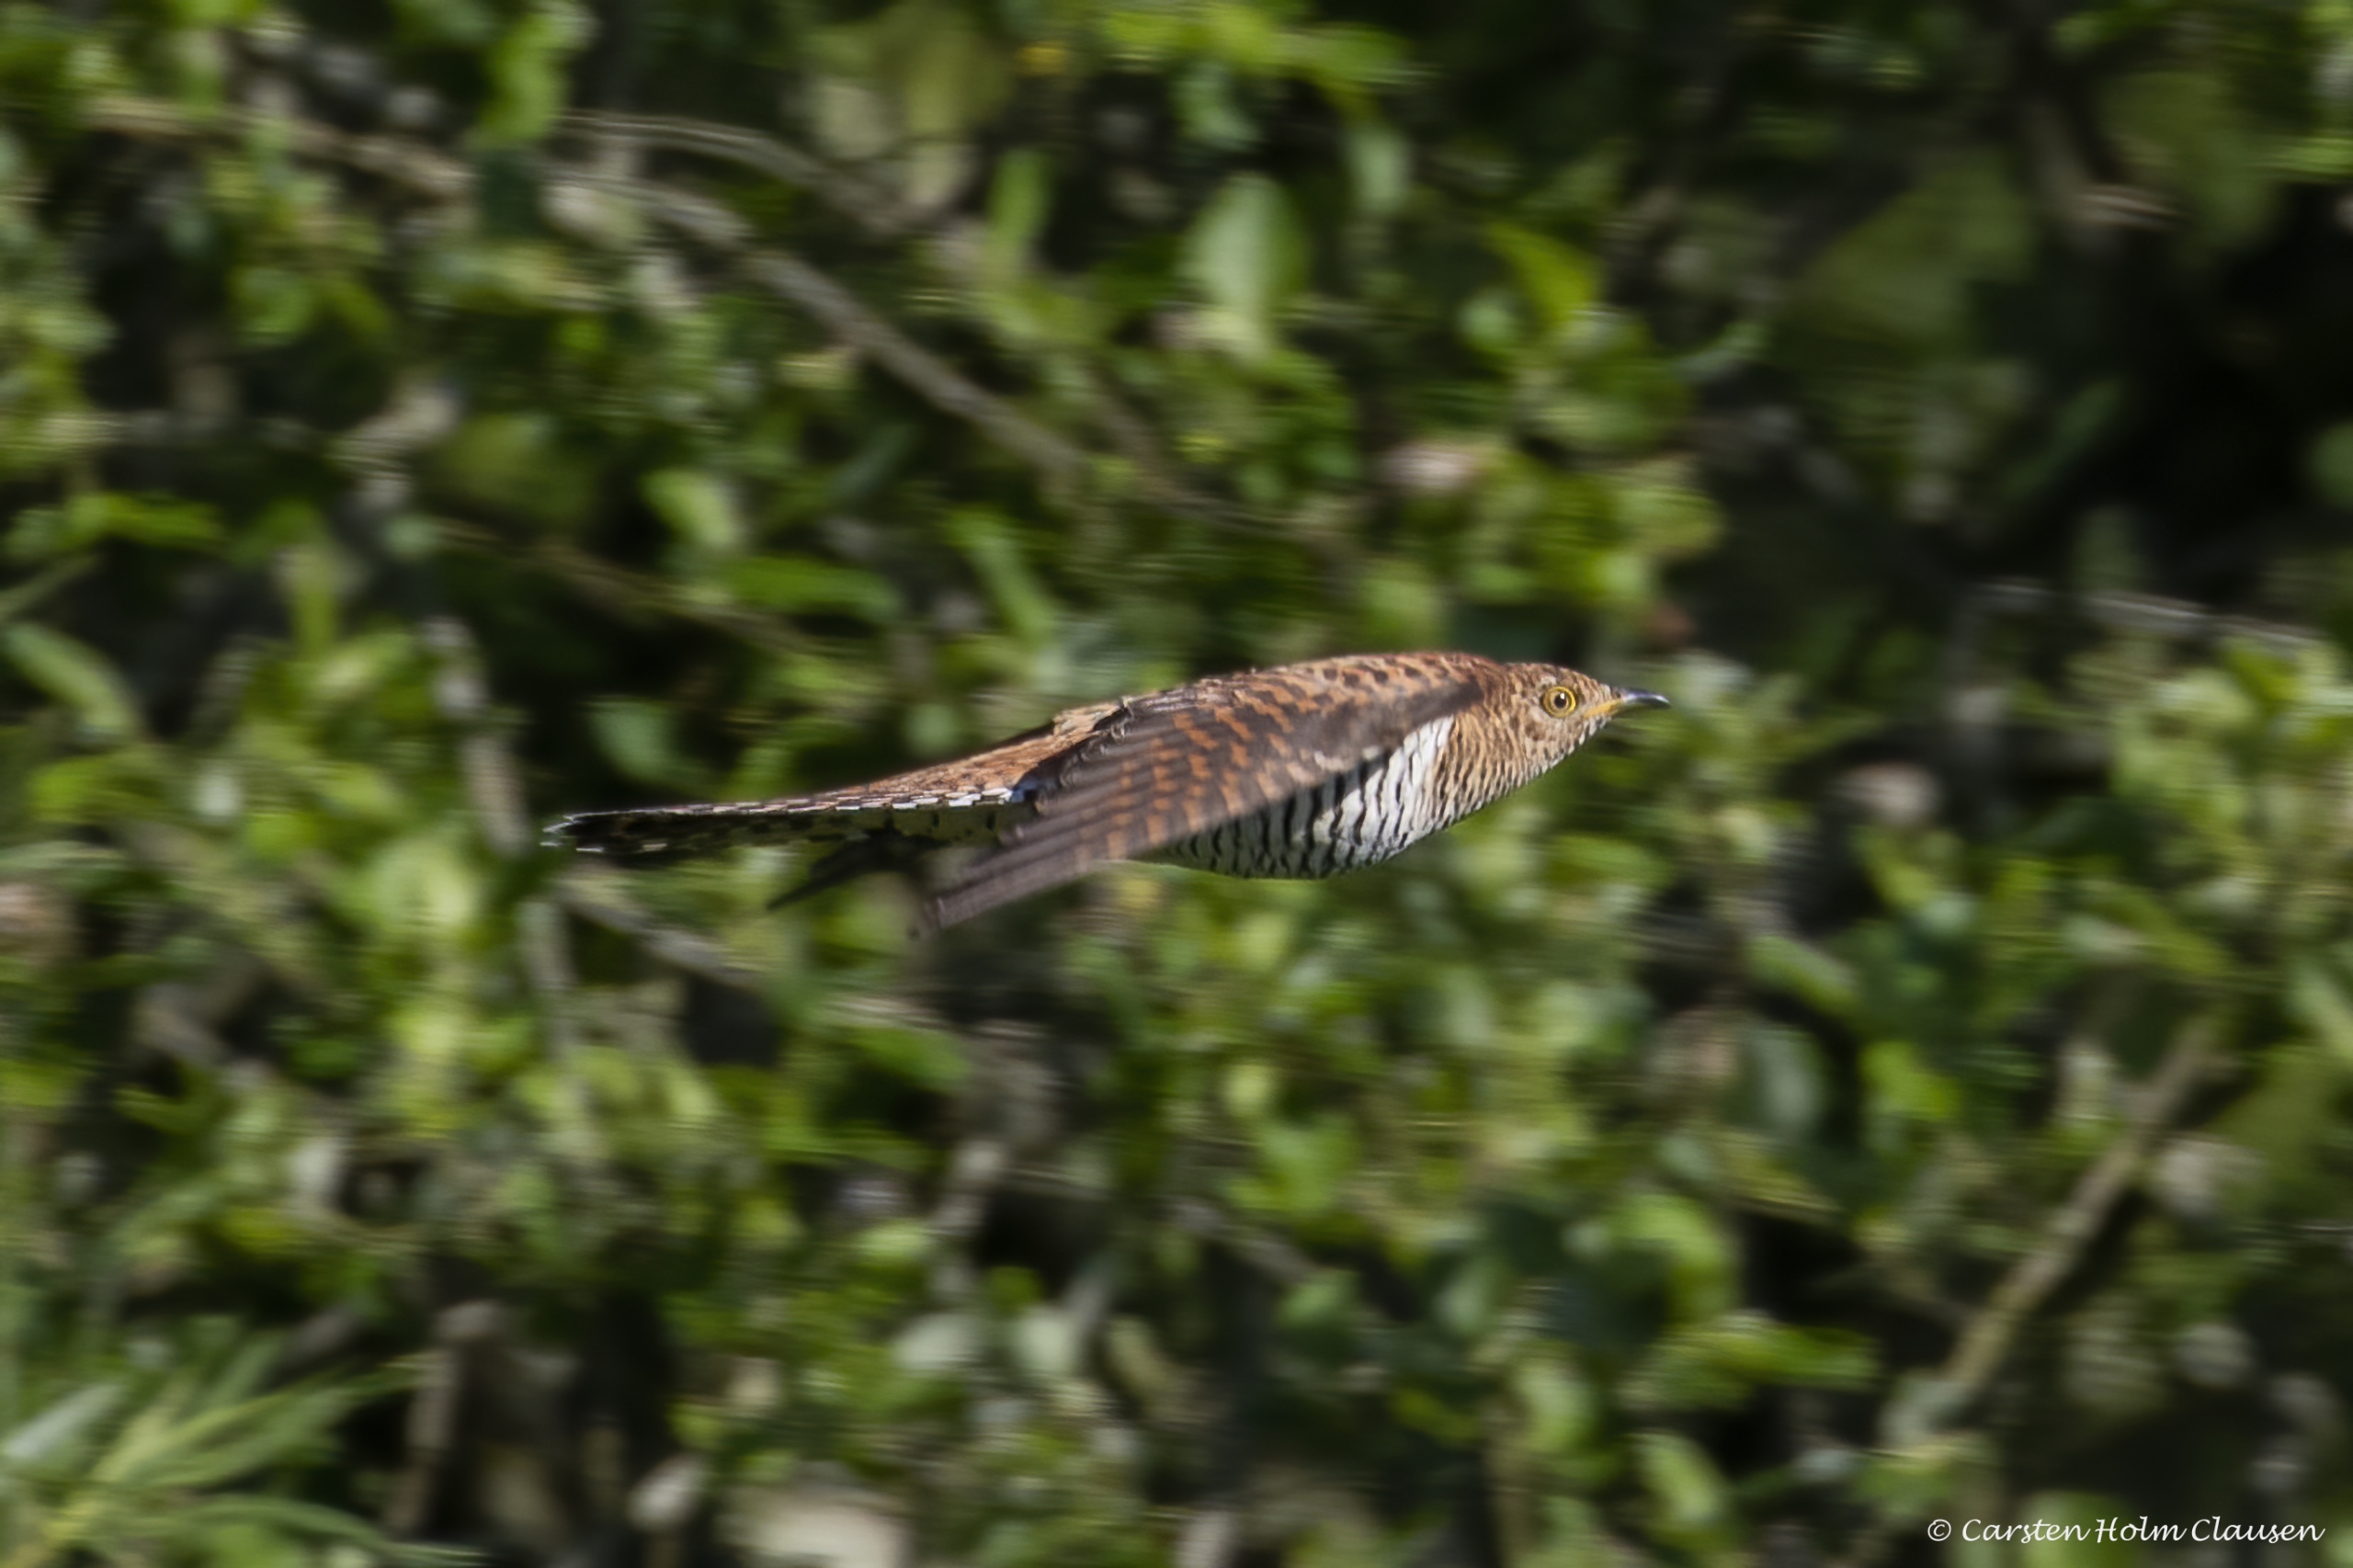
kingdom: Animalia
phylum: Chordata
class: Aves
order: Cuculiformes
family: Cuculidae
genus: Cuculus
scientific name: Cuculus canorus
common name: Gøg
